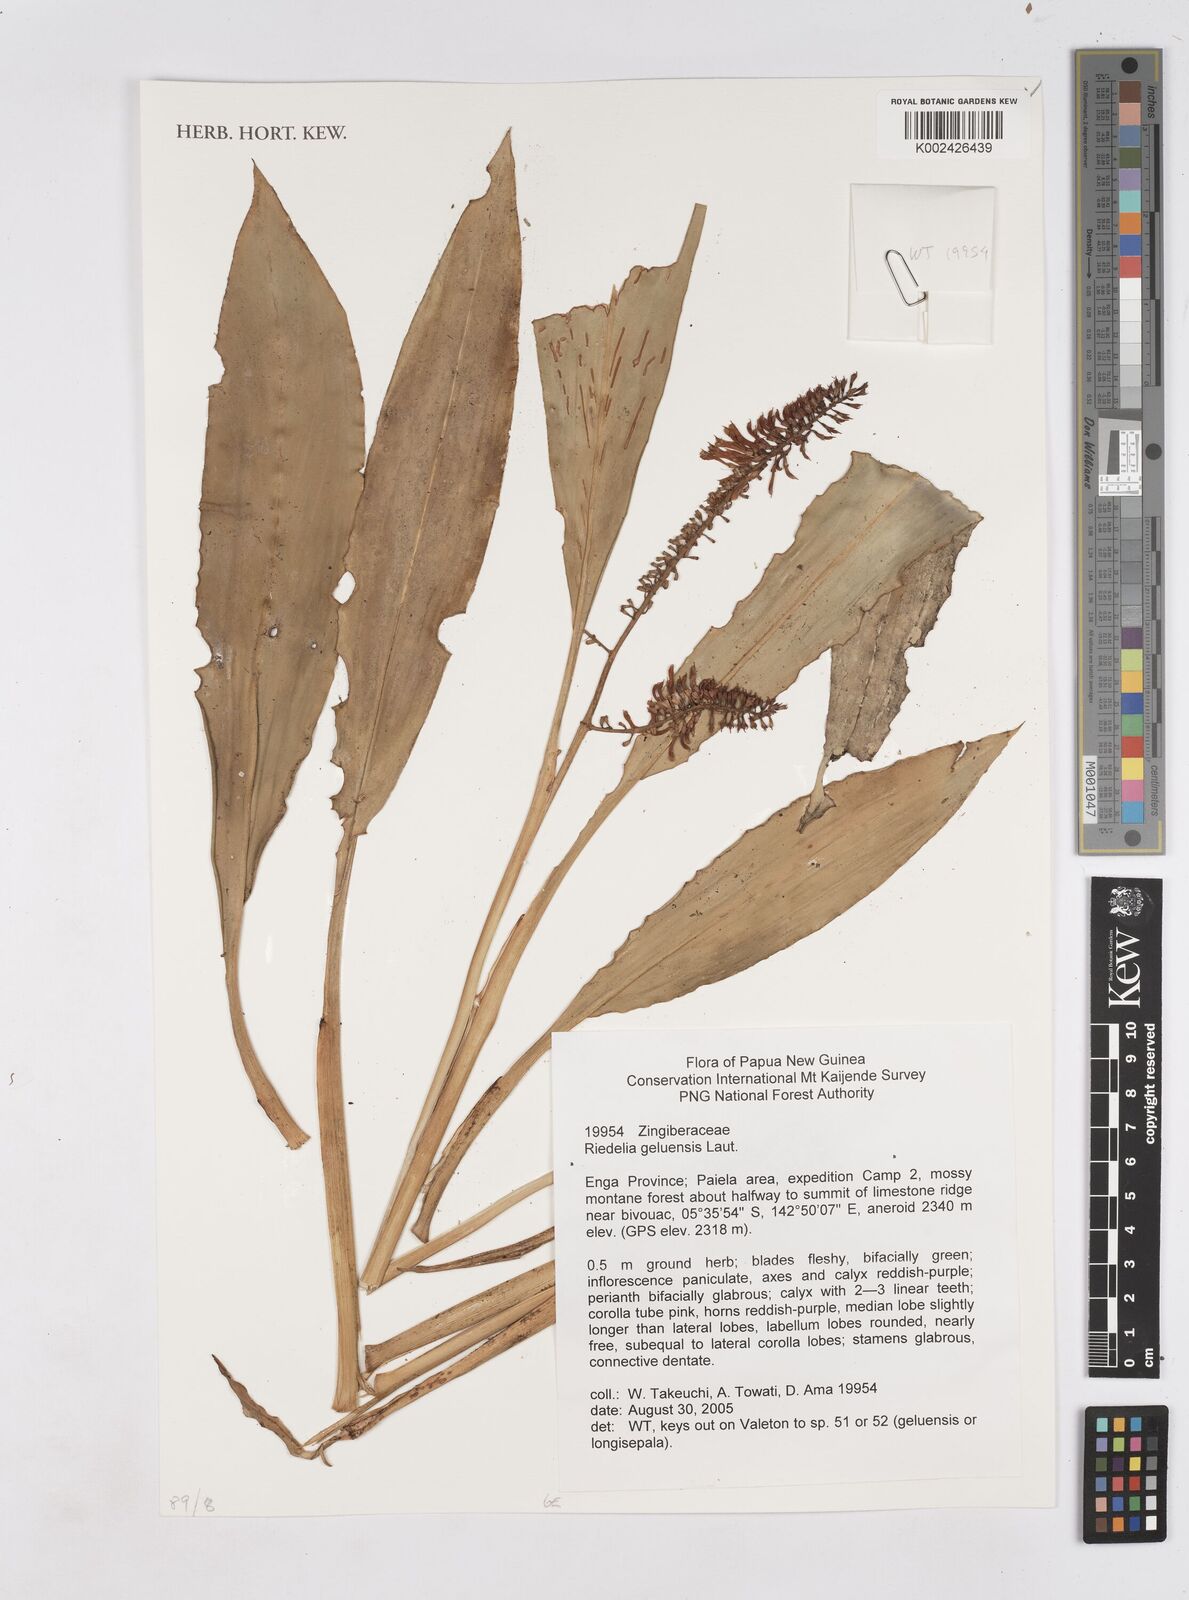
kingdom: Plantae
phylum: Tracheophyta
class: Liliopsida
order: Zingiberales
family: Zingiberaceae
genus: Riedelia
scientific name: Riedelia geluensis
